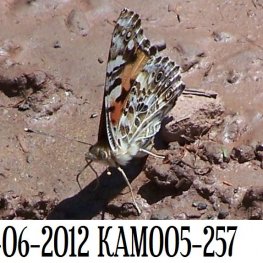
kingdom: Animalia
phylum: Arthropoda
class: Insecta
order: Lepidoptera
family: Nymphalidae
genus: Vanessa
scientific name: Vanessa cardui
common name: Painted Lady
